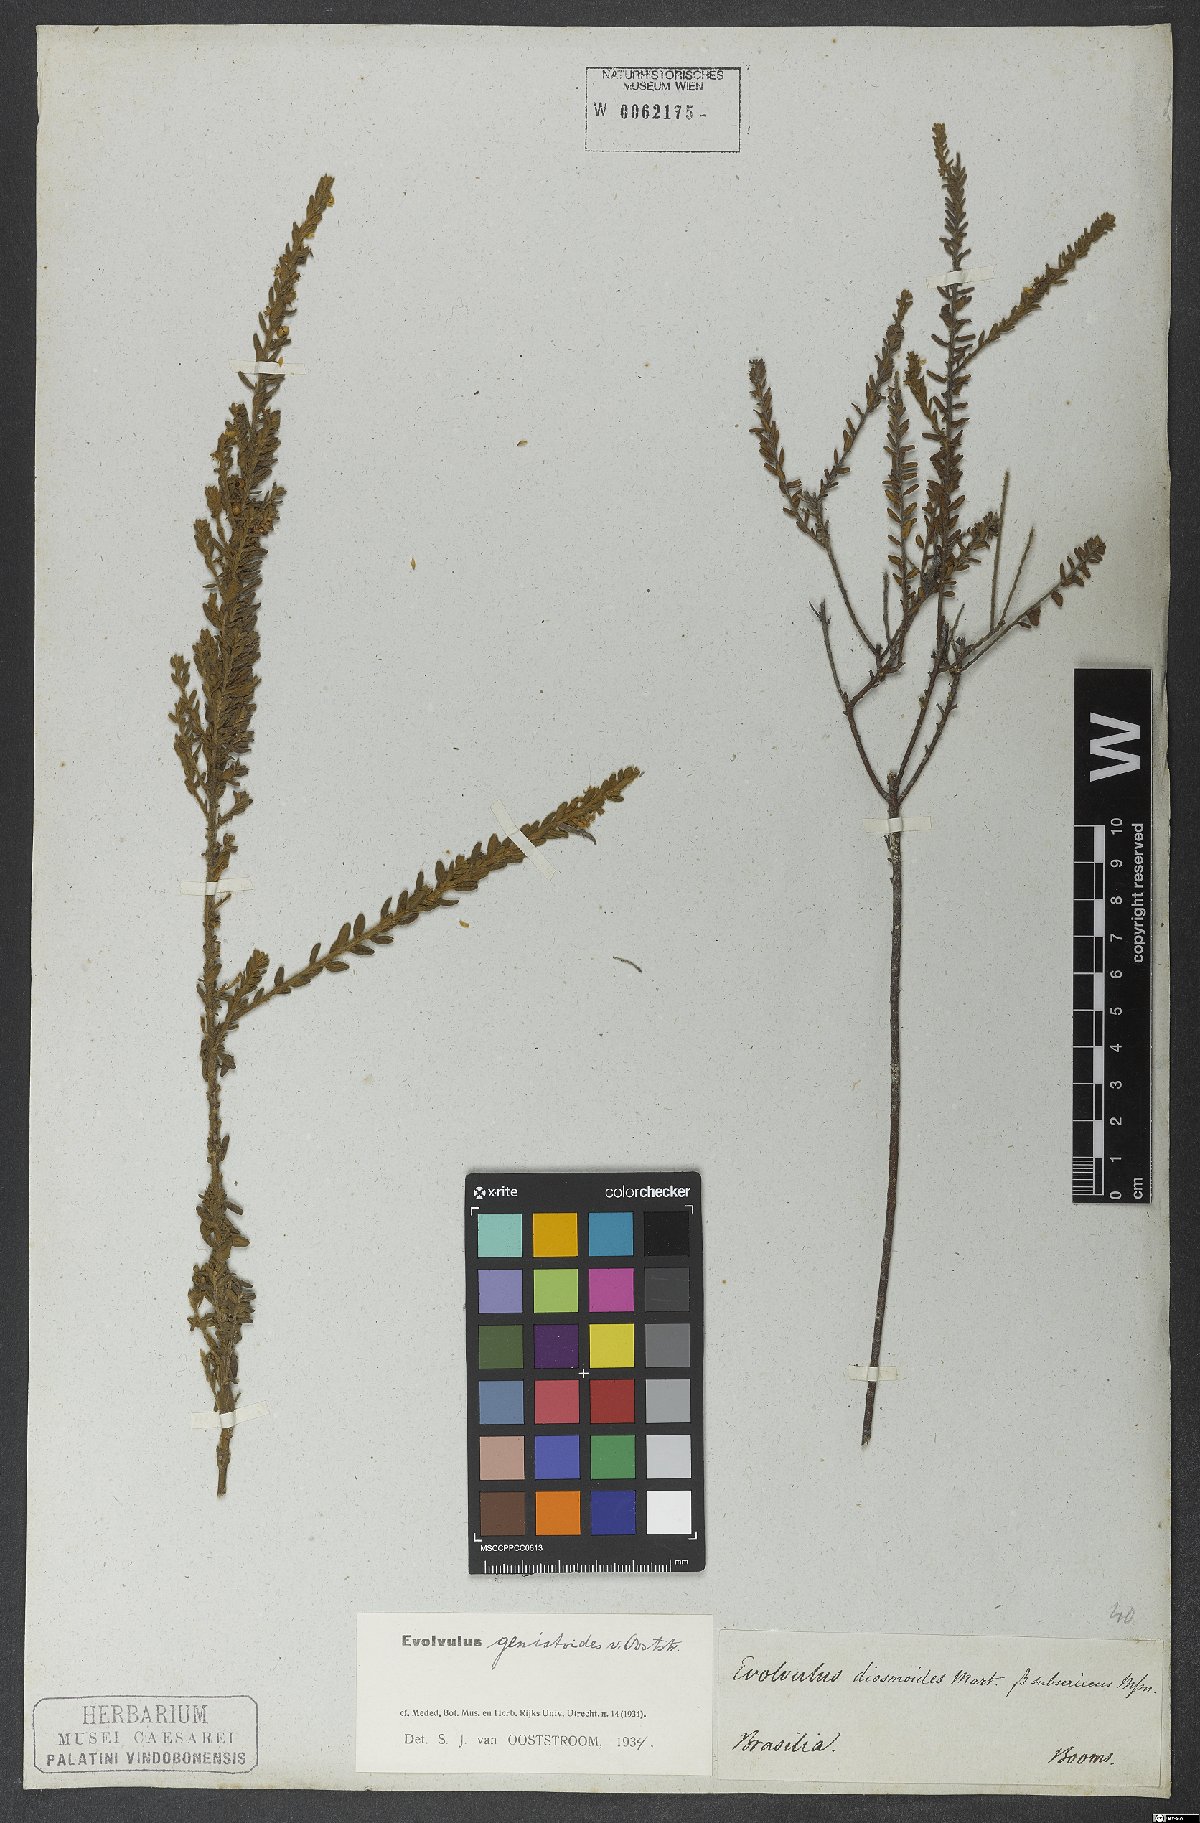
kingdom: Plantae
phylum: Tracheophyta
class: Magnoliopsida
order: Solanales
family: Convolvulaceae
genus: Evolvulus
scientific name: Evolvulus genistoides
